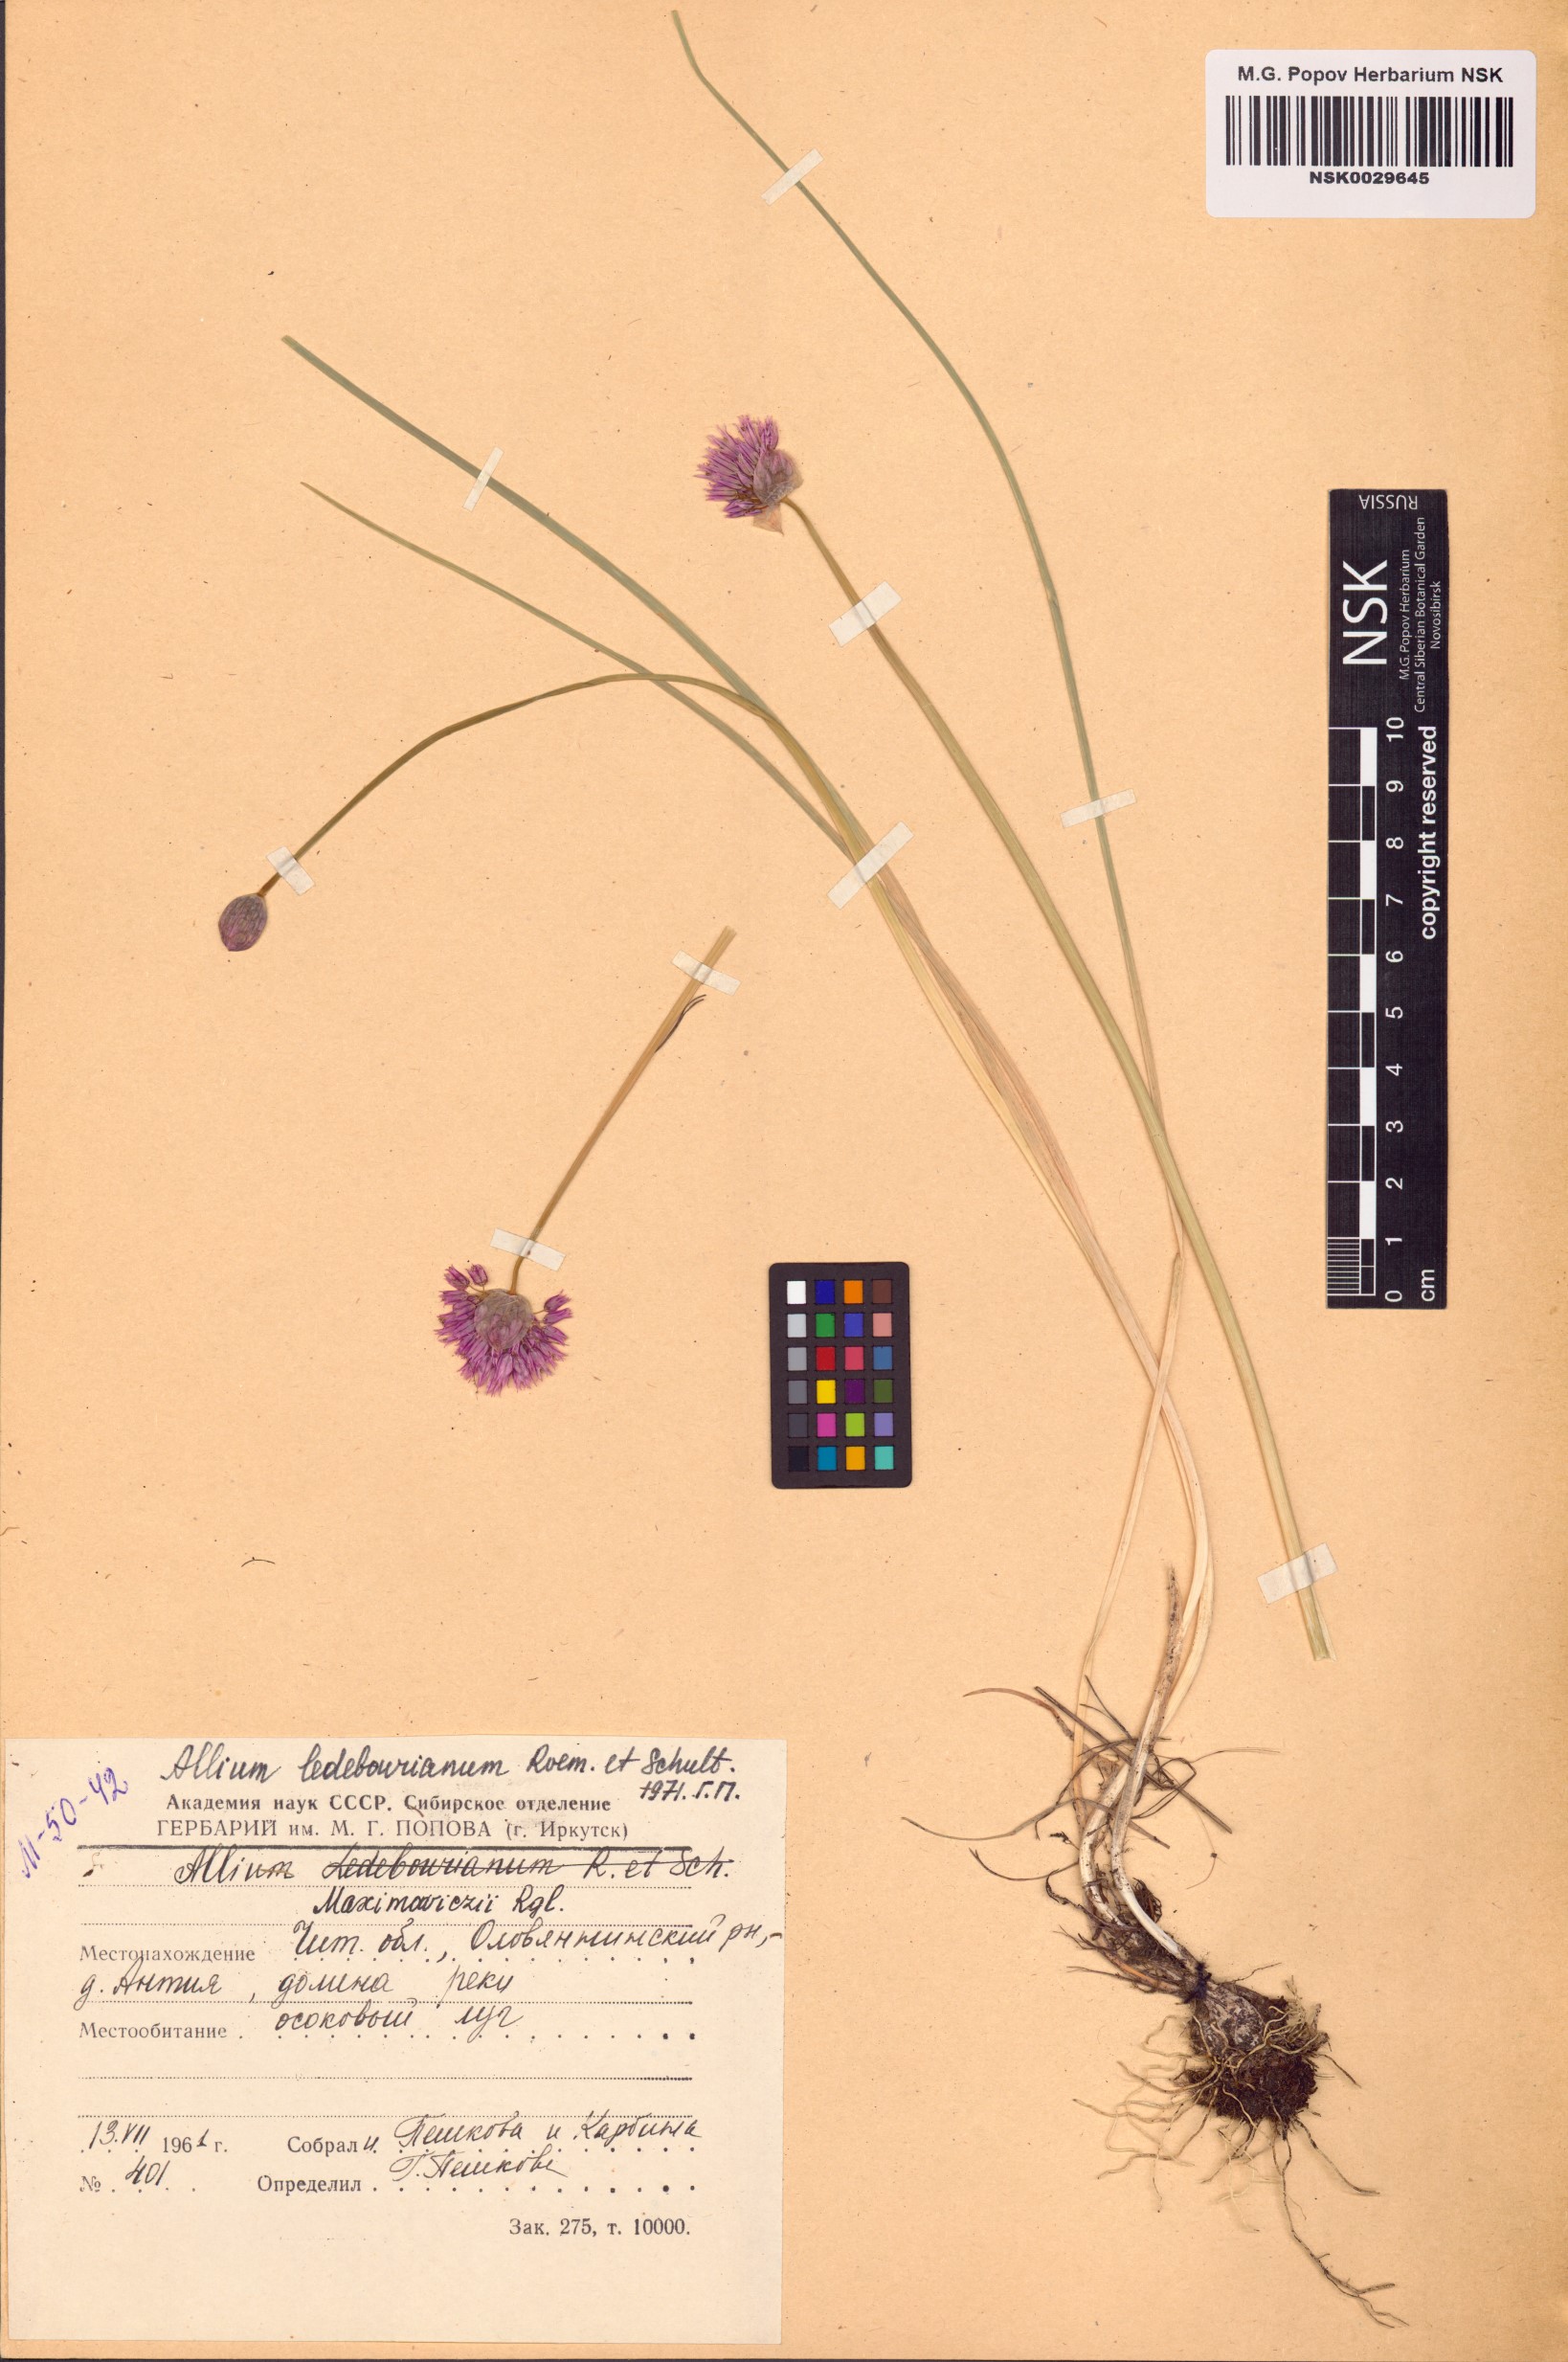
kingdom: Plantae
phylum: Tracheophyta
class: Liliopsida
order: Asparagales
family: Amaryllidaceae
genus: Allium
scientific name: Allium maximowiczii
